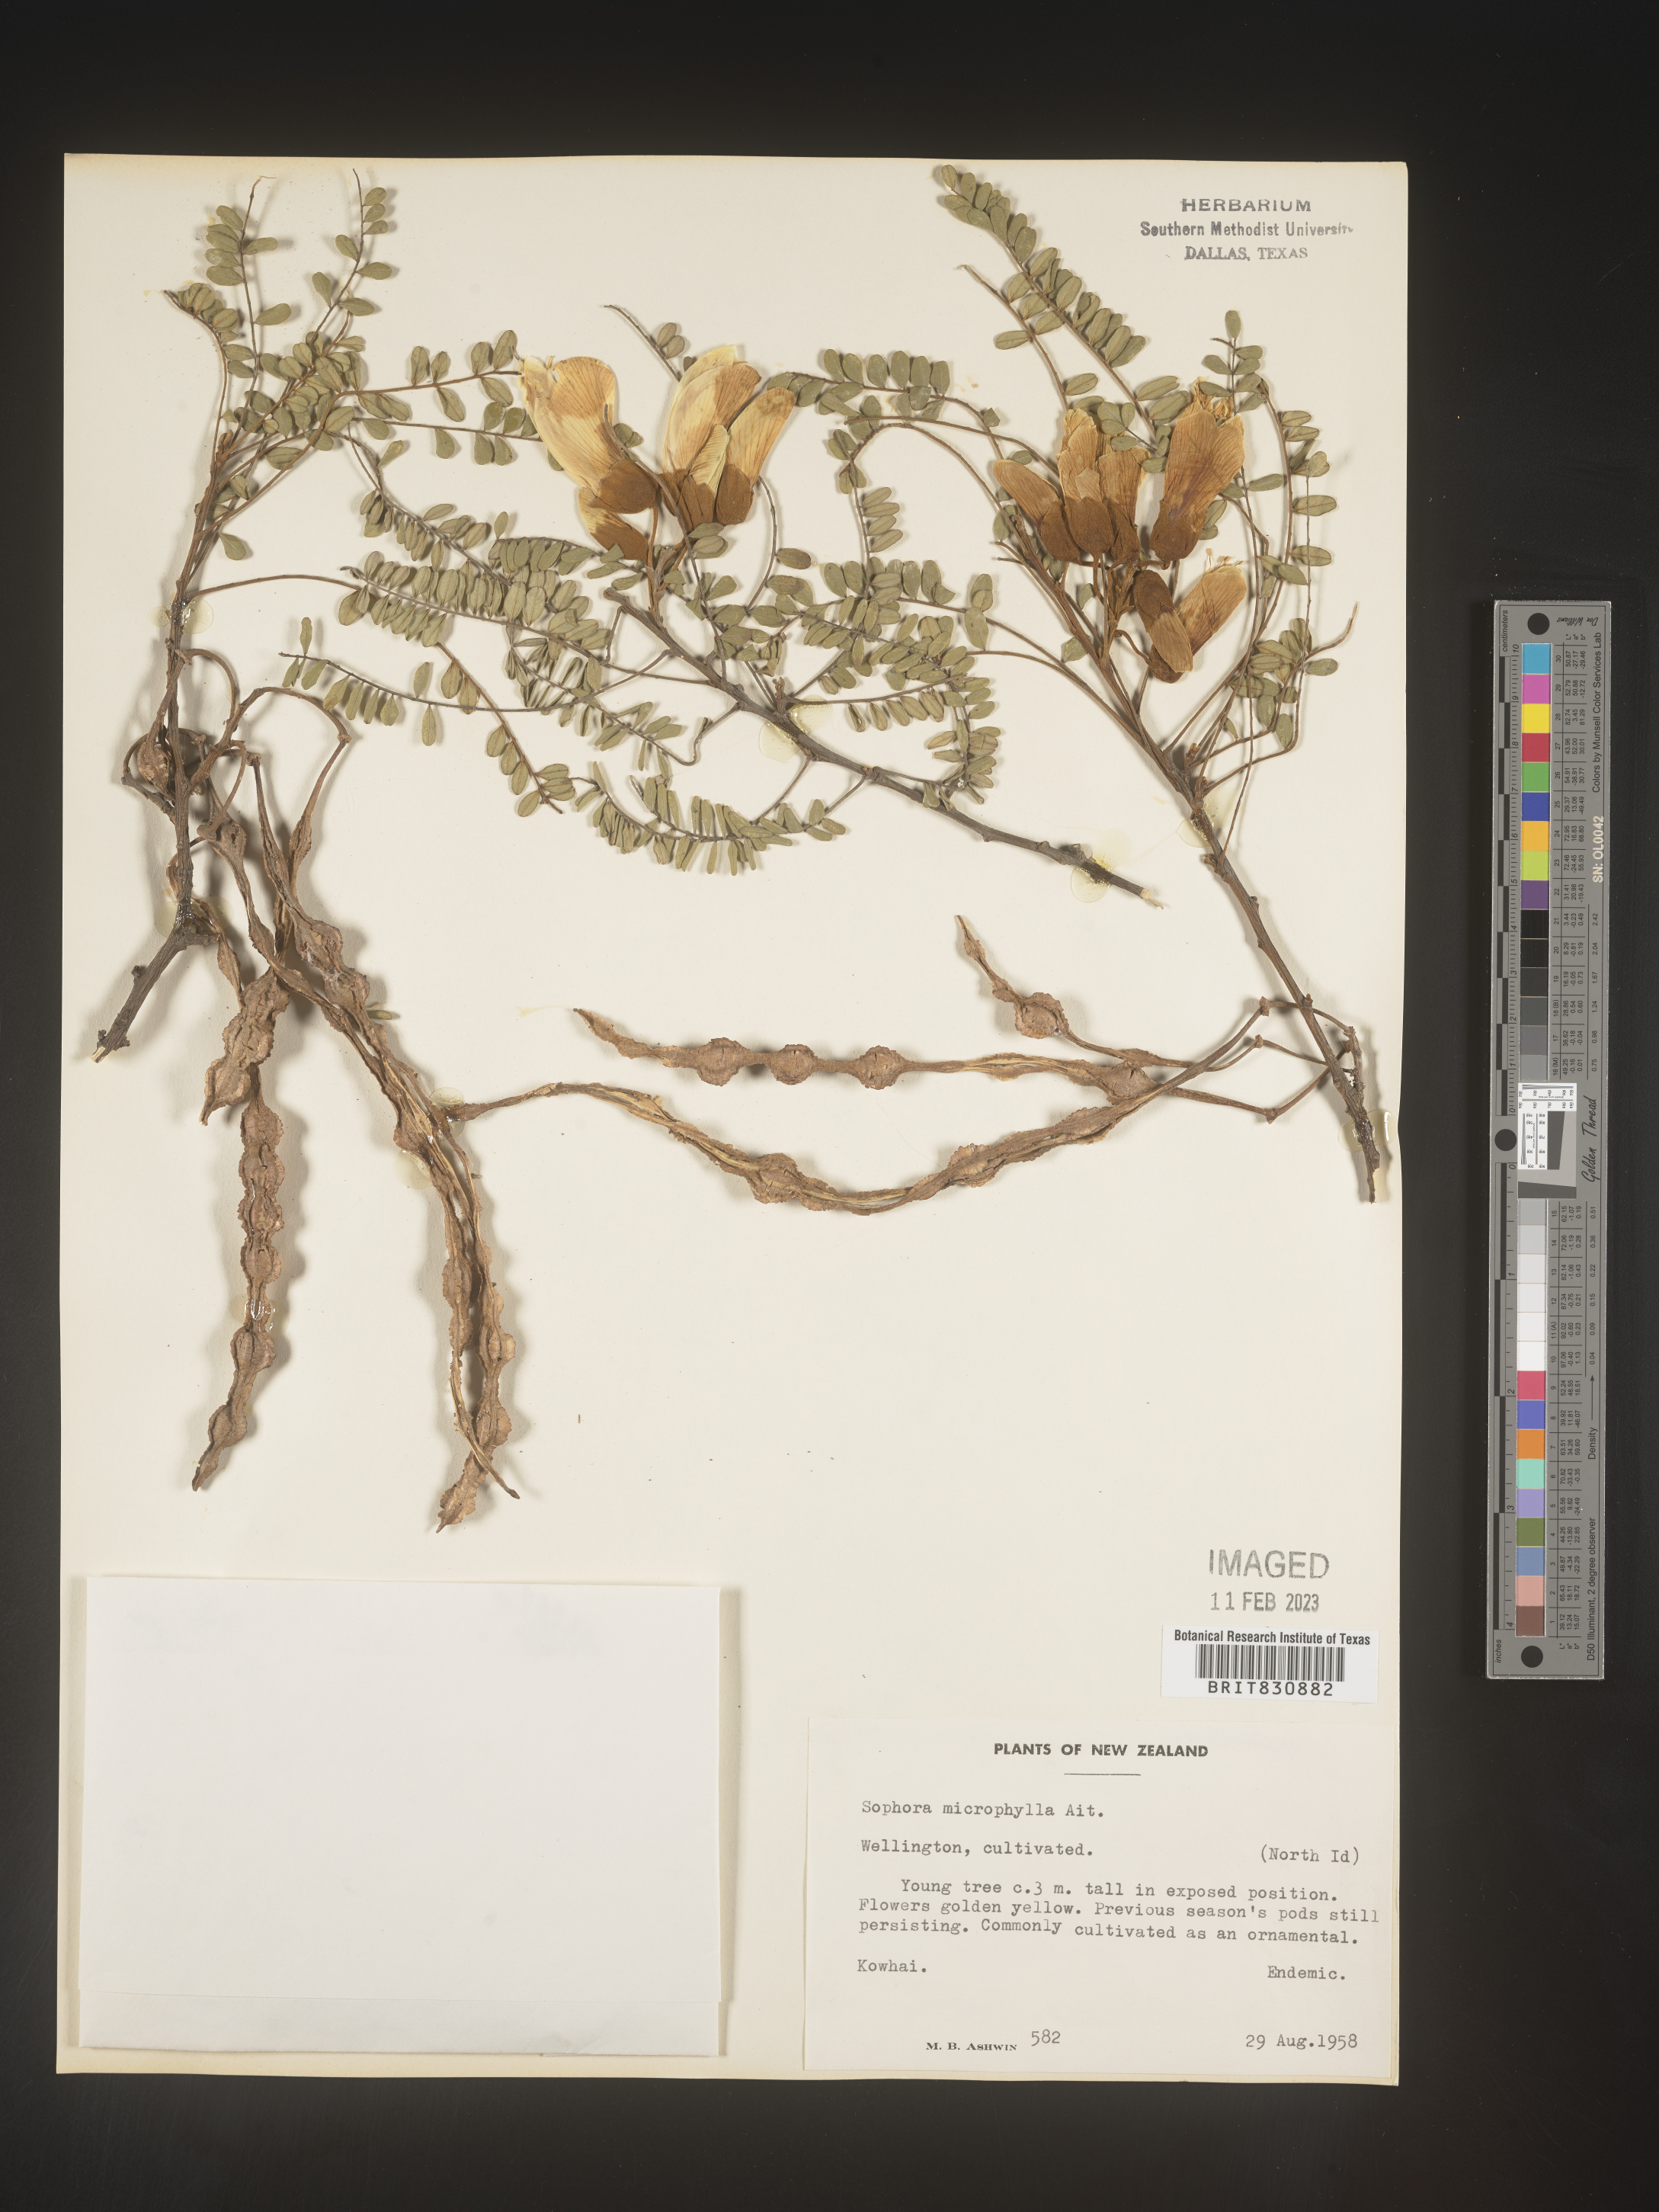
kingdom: Plantae
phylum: Tracheophyta
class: Magnoliopsida
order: Fabales
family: Fabaceae
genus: Sophora
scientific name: Sophora
